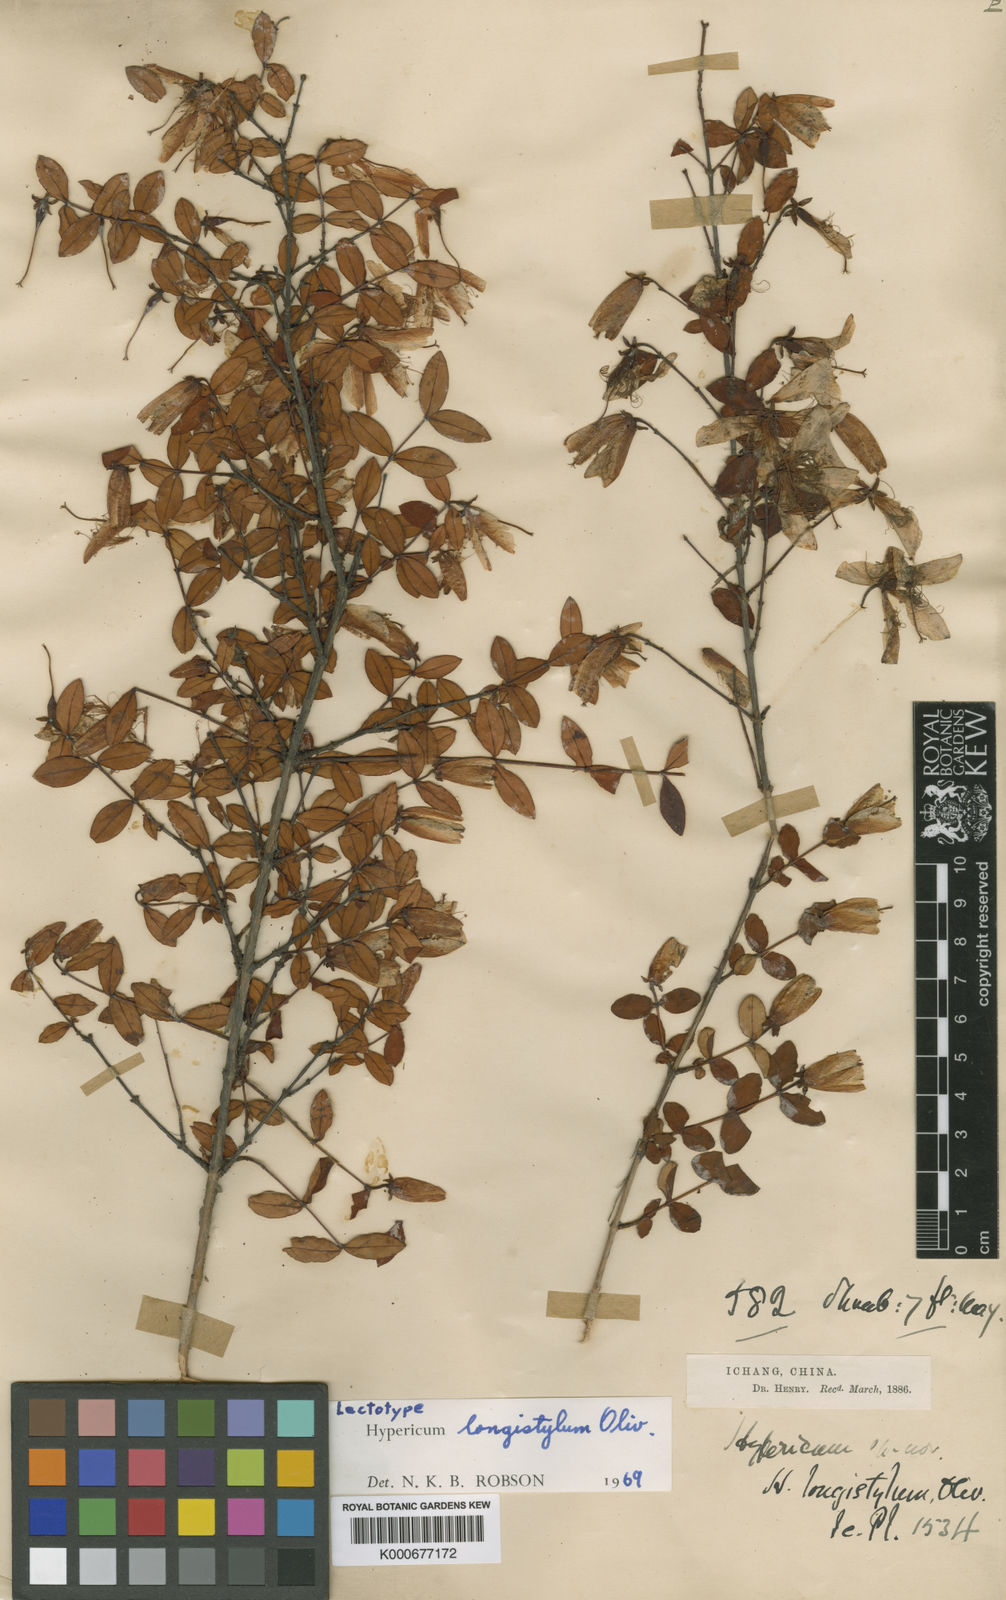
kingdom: Plantae
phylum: Tracheophyta
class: Magnoliopsida
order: Malpighiales
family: Hypericaceae
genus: Hypericum
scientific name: Hypericum longistylum
